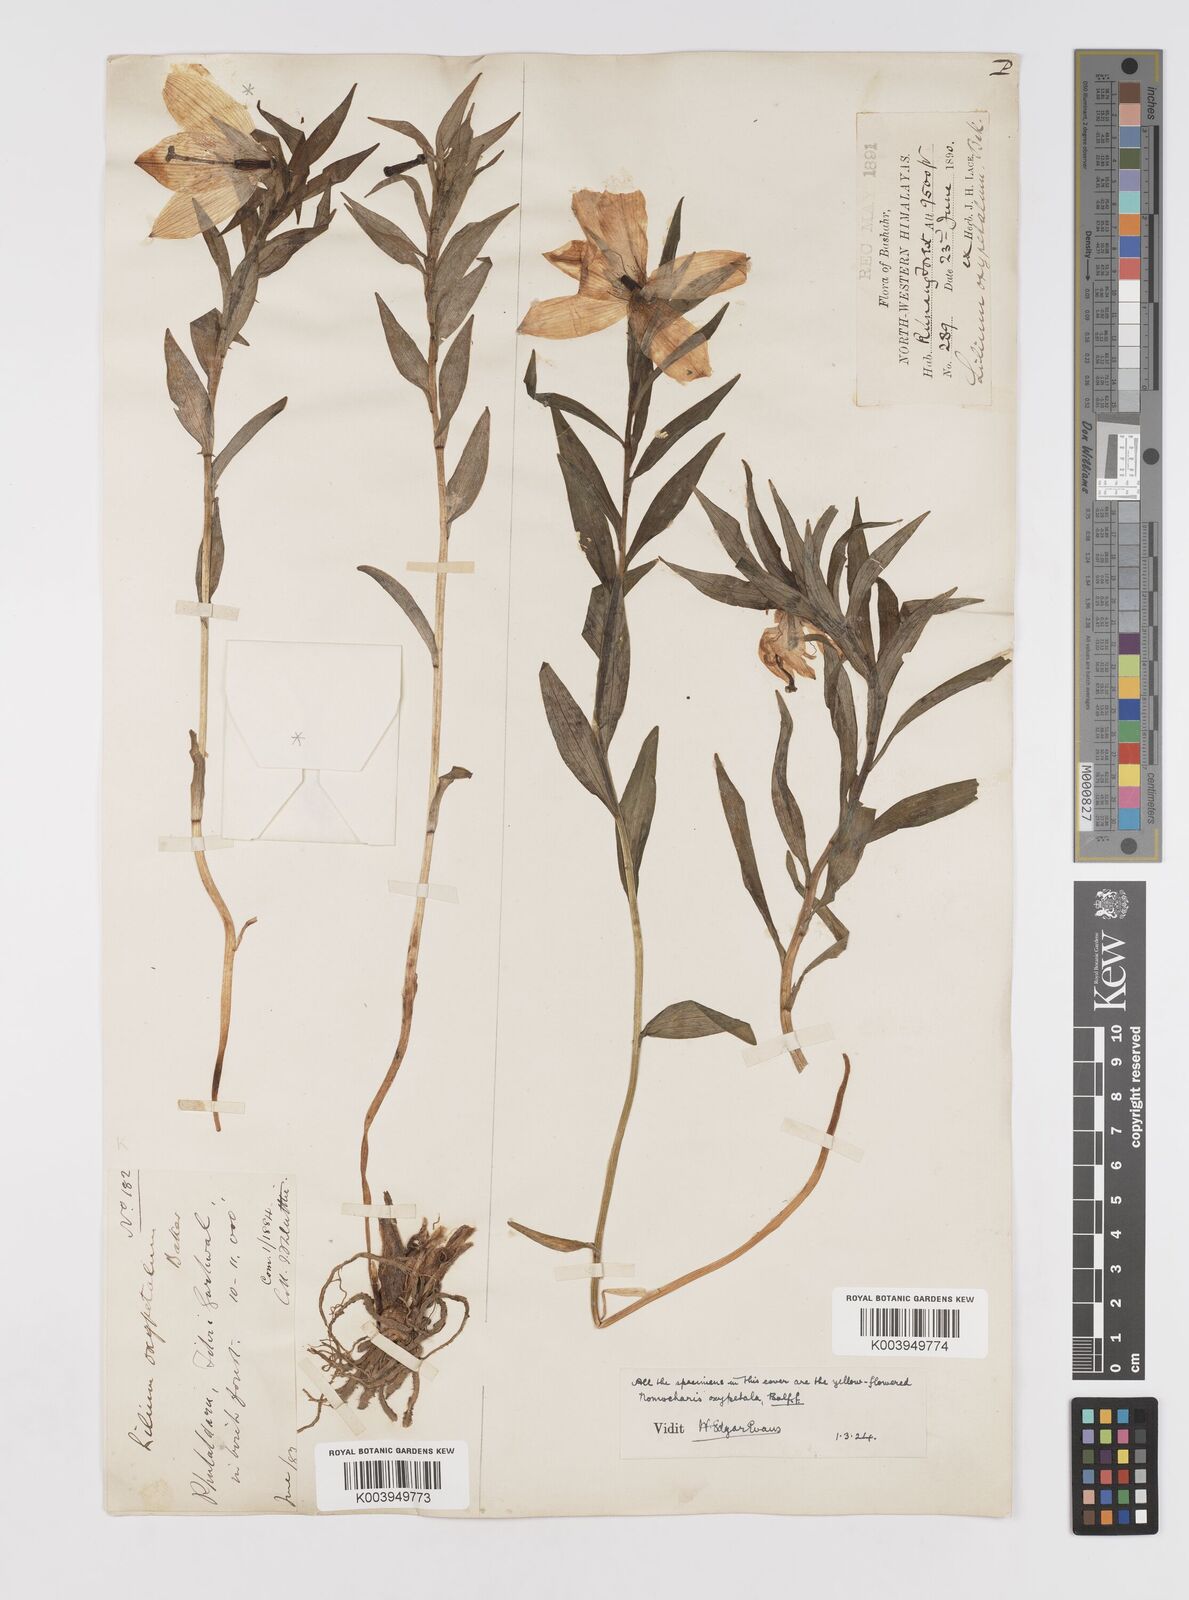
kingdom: Plantae
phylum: Tracheophyta
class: Liliopsida
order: Liliales
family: Liliaceae
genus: Lilium
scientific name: Lilium oxypetalum
